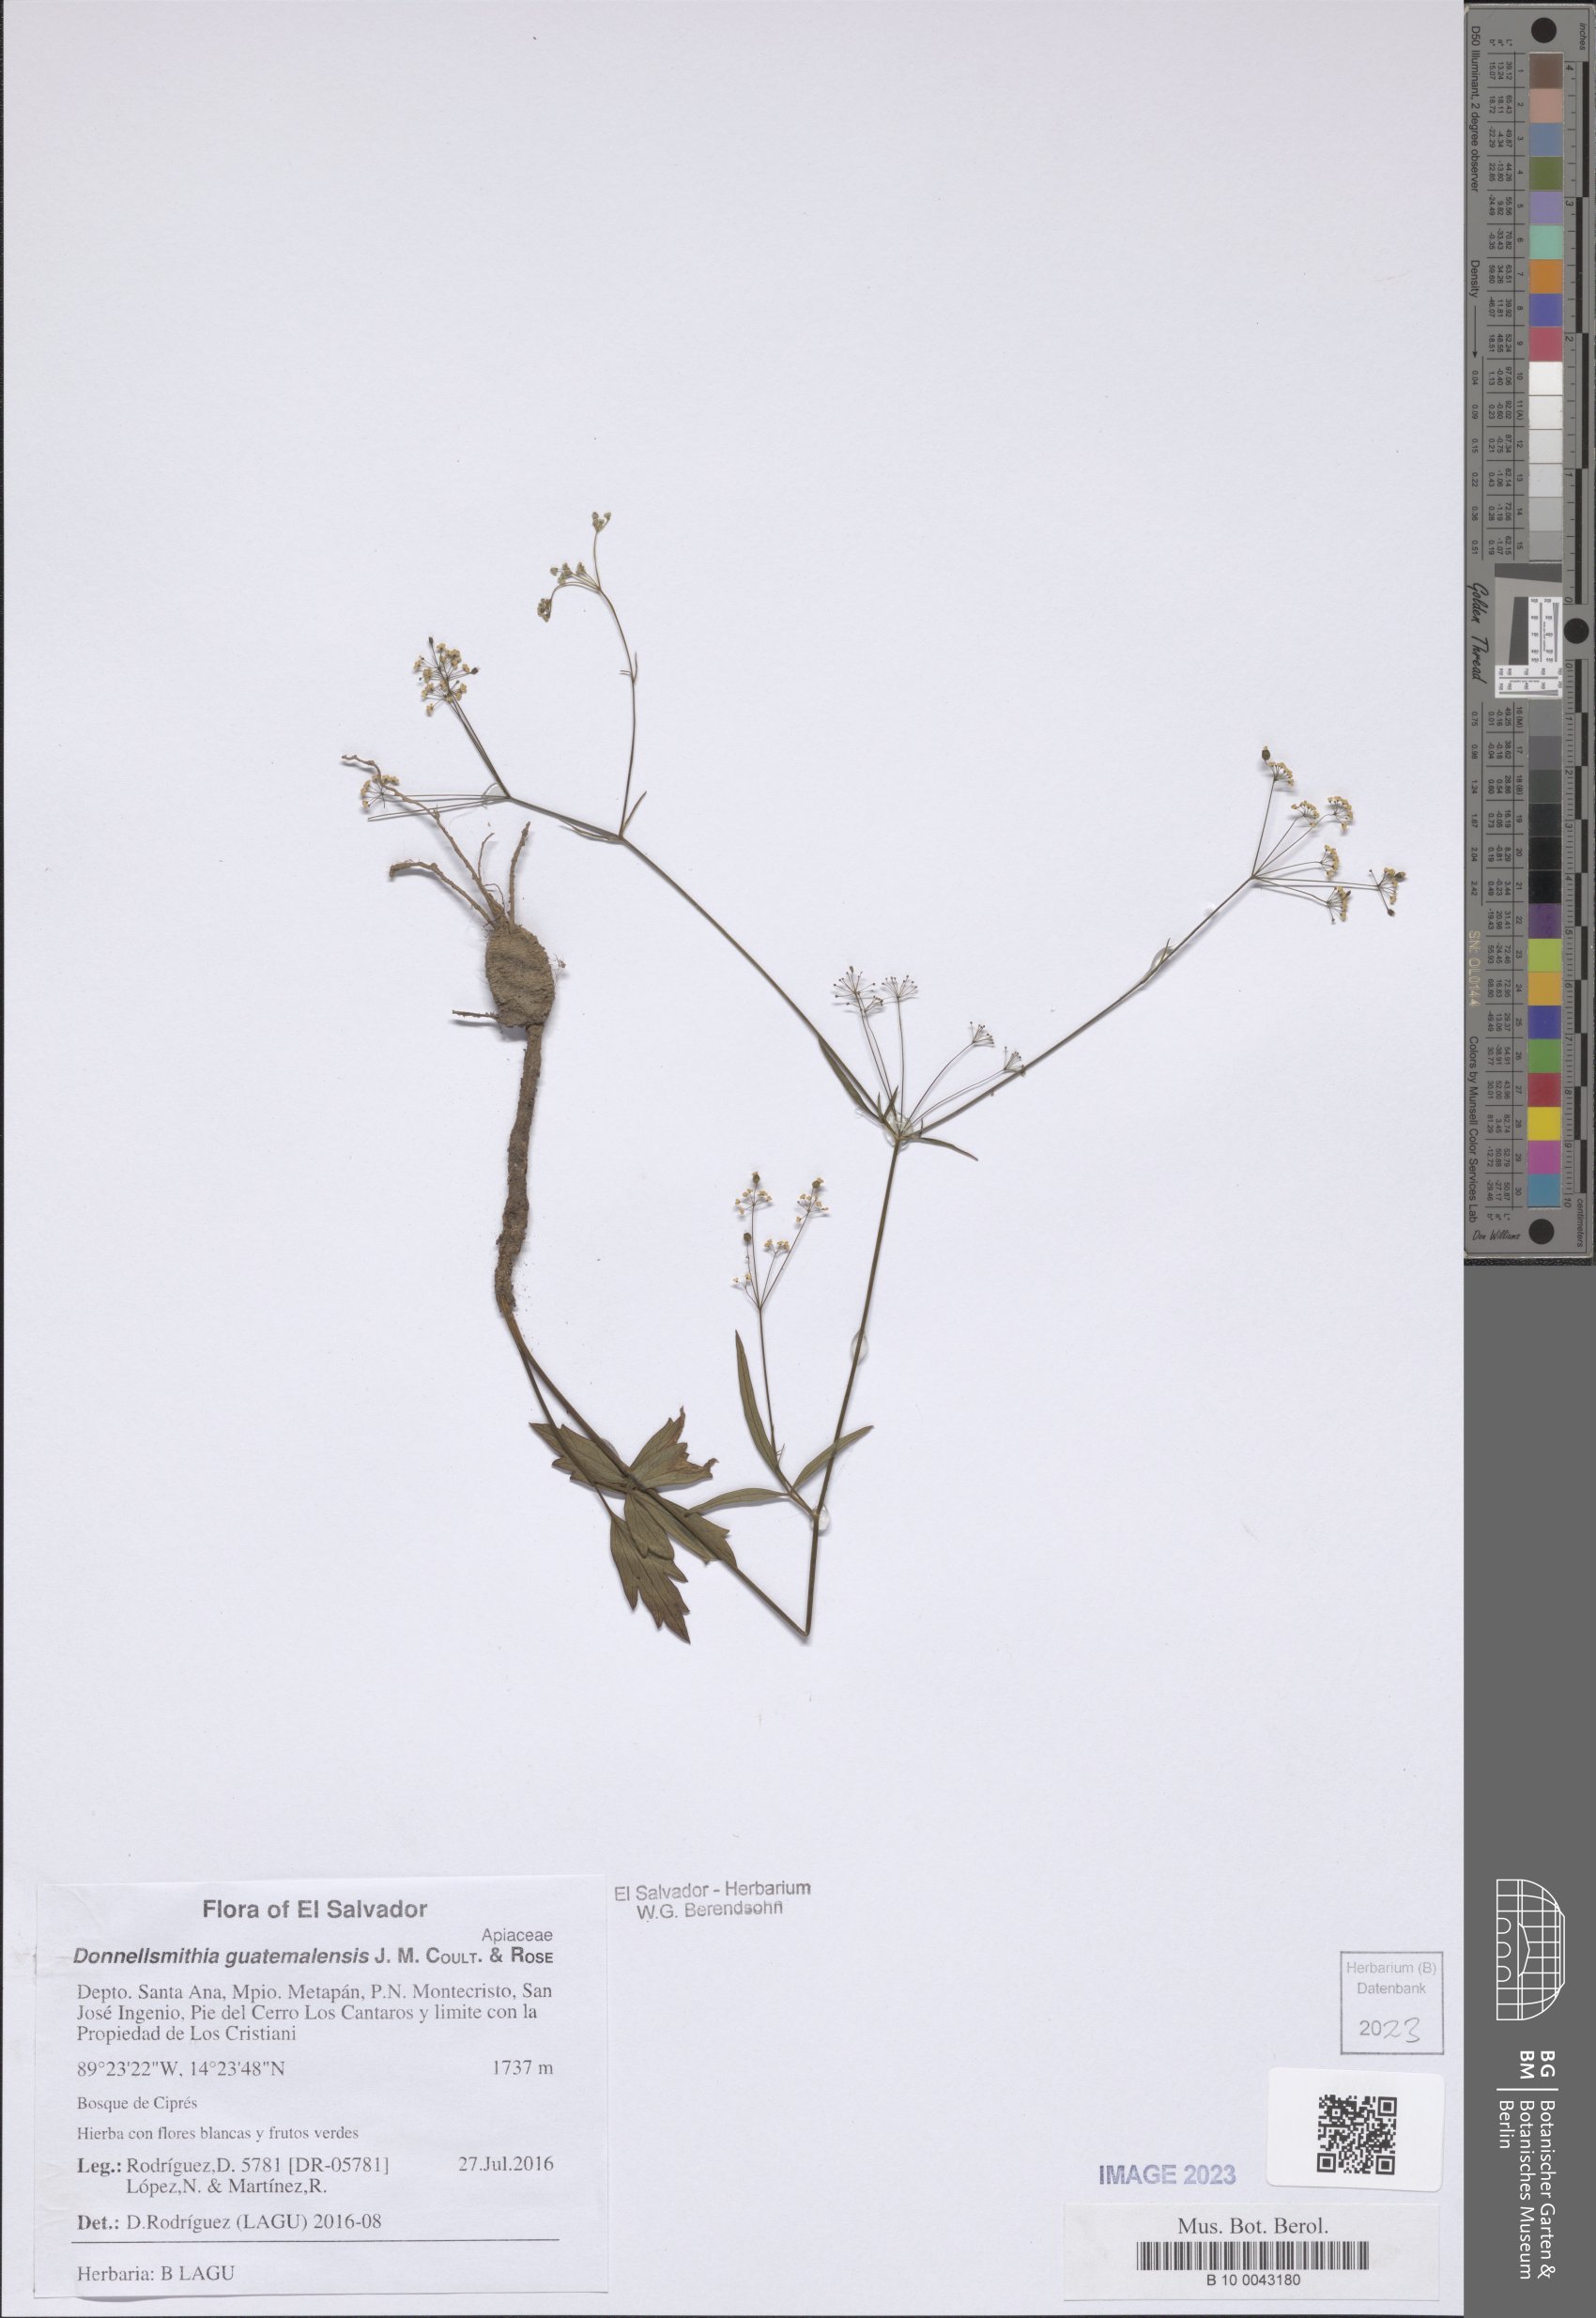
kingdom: Plantae
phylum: Tracheophyta
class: Magnoliopsida
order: Apiales
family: Apiaceae
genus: Donnellsmithia
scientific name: Donnellsmithia guatemalensis
